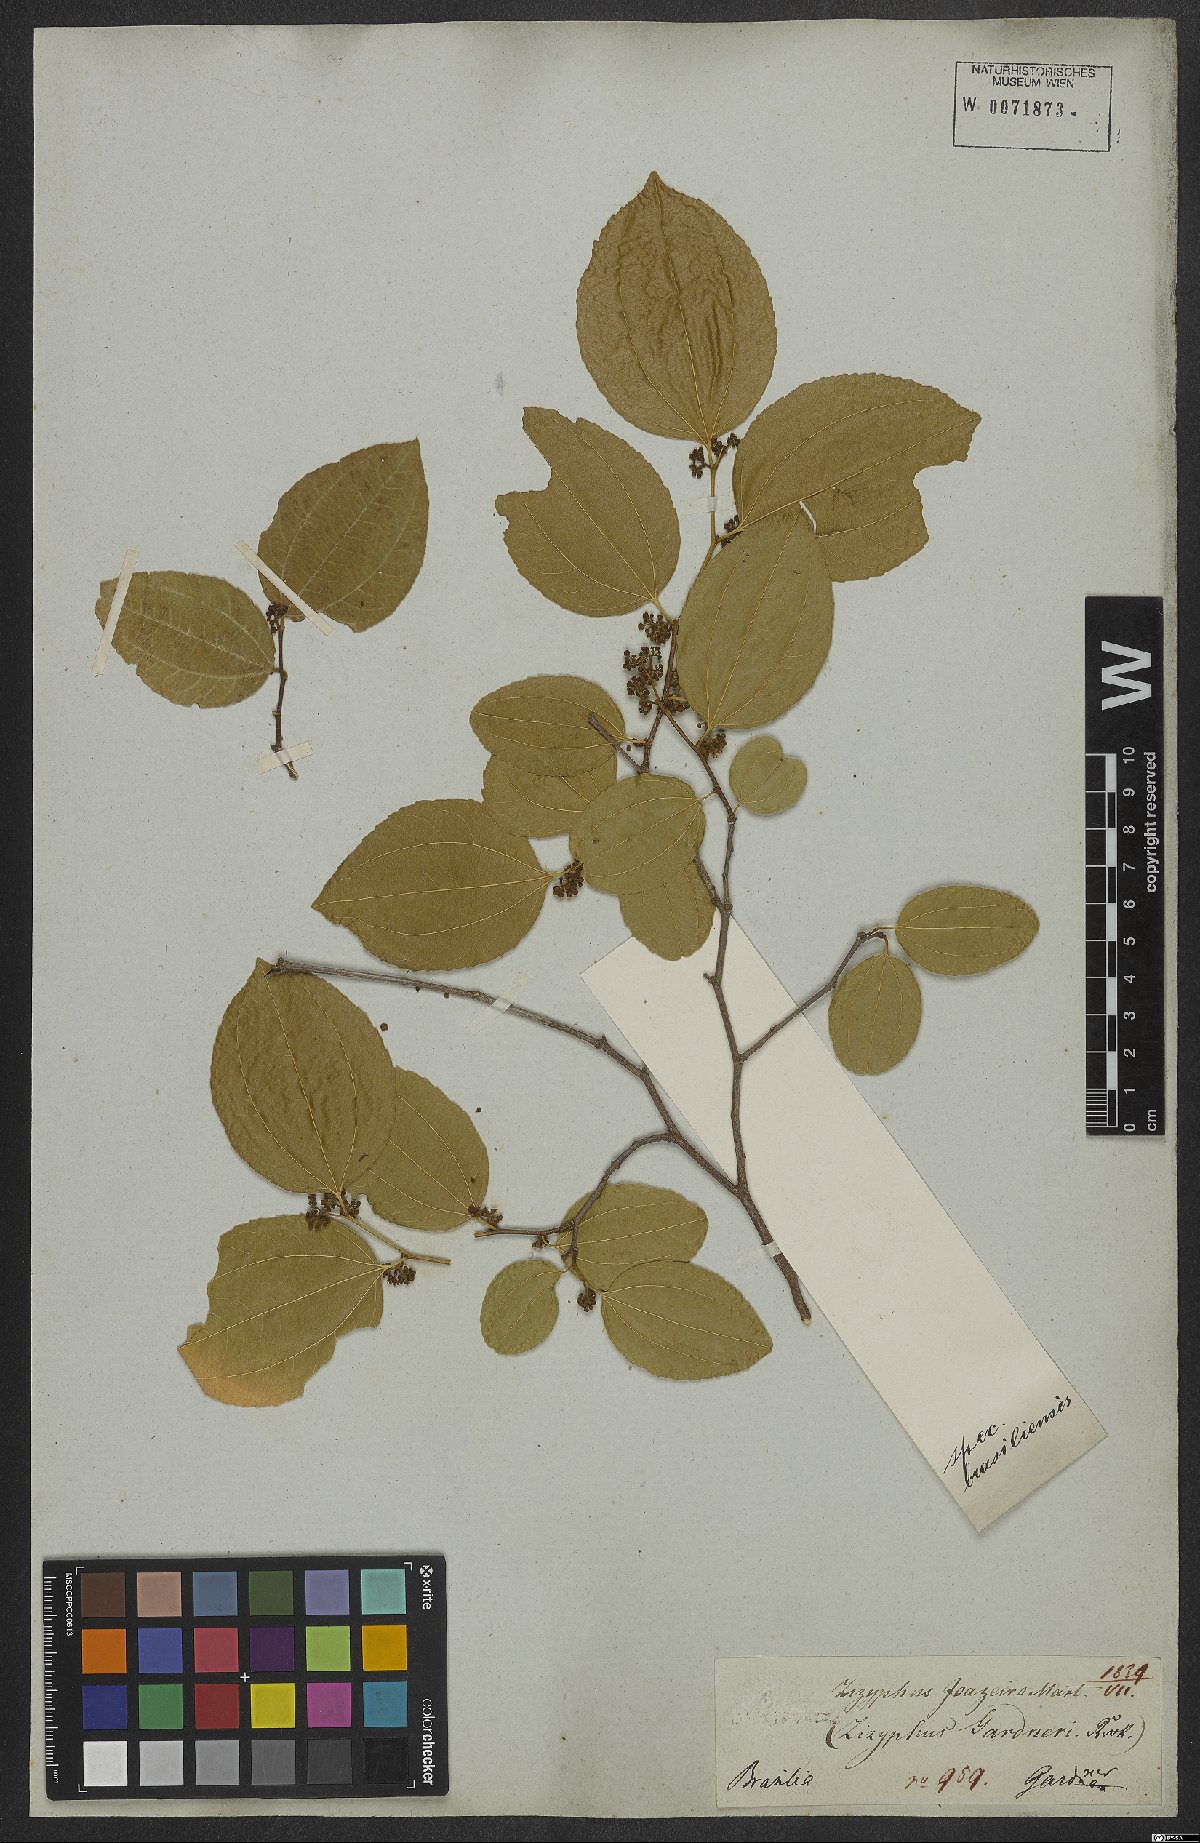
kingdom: Plantae
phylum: Tracheophyta
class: Magnoliopsida
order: Rosales
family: Rhamnaceae
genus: Sarcomphalus
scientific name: Sarcomphalus joazeiro
